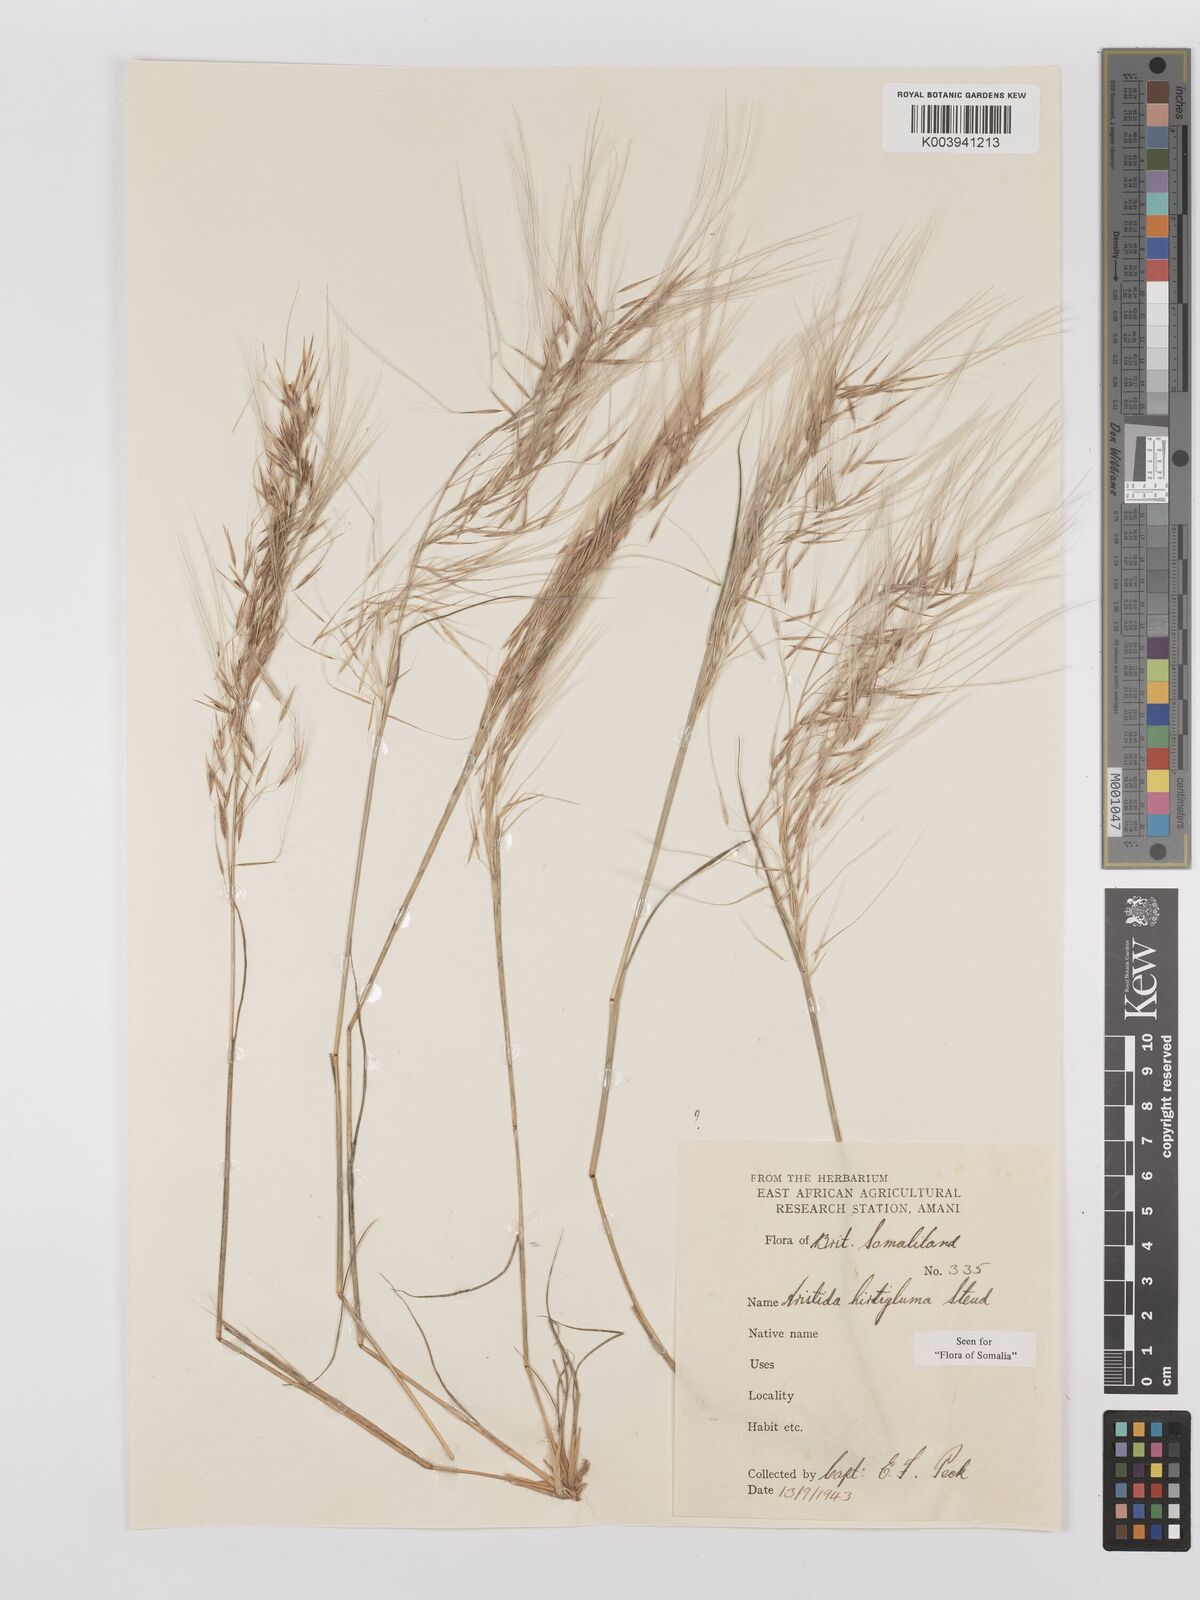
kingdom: Plantae
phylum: Tracheophyta
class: Liliopsida
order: Poales
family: Poaceae
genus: Stipagrostis
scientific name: Stipagrostis hirtigluma
